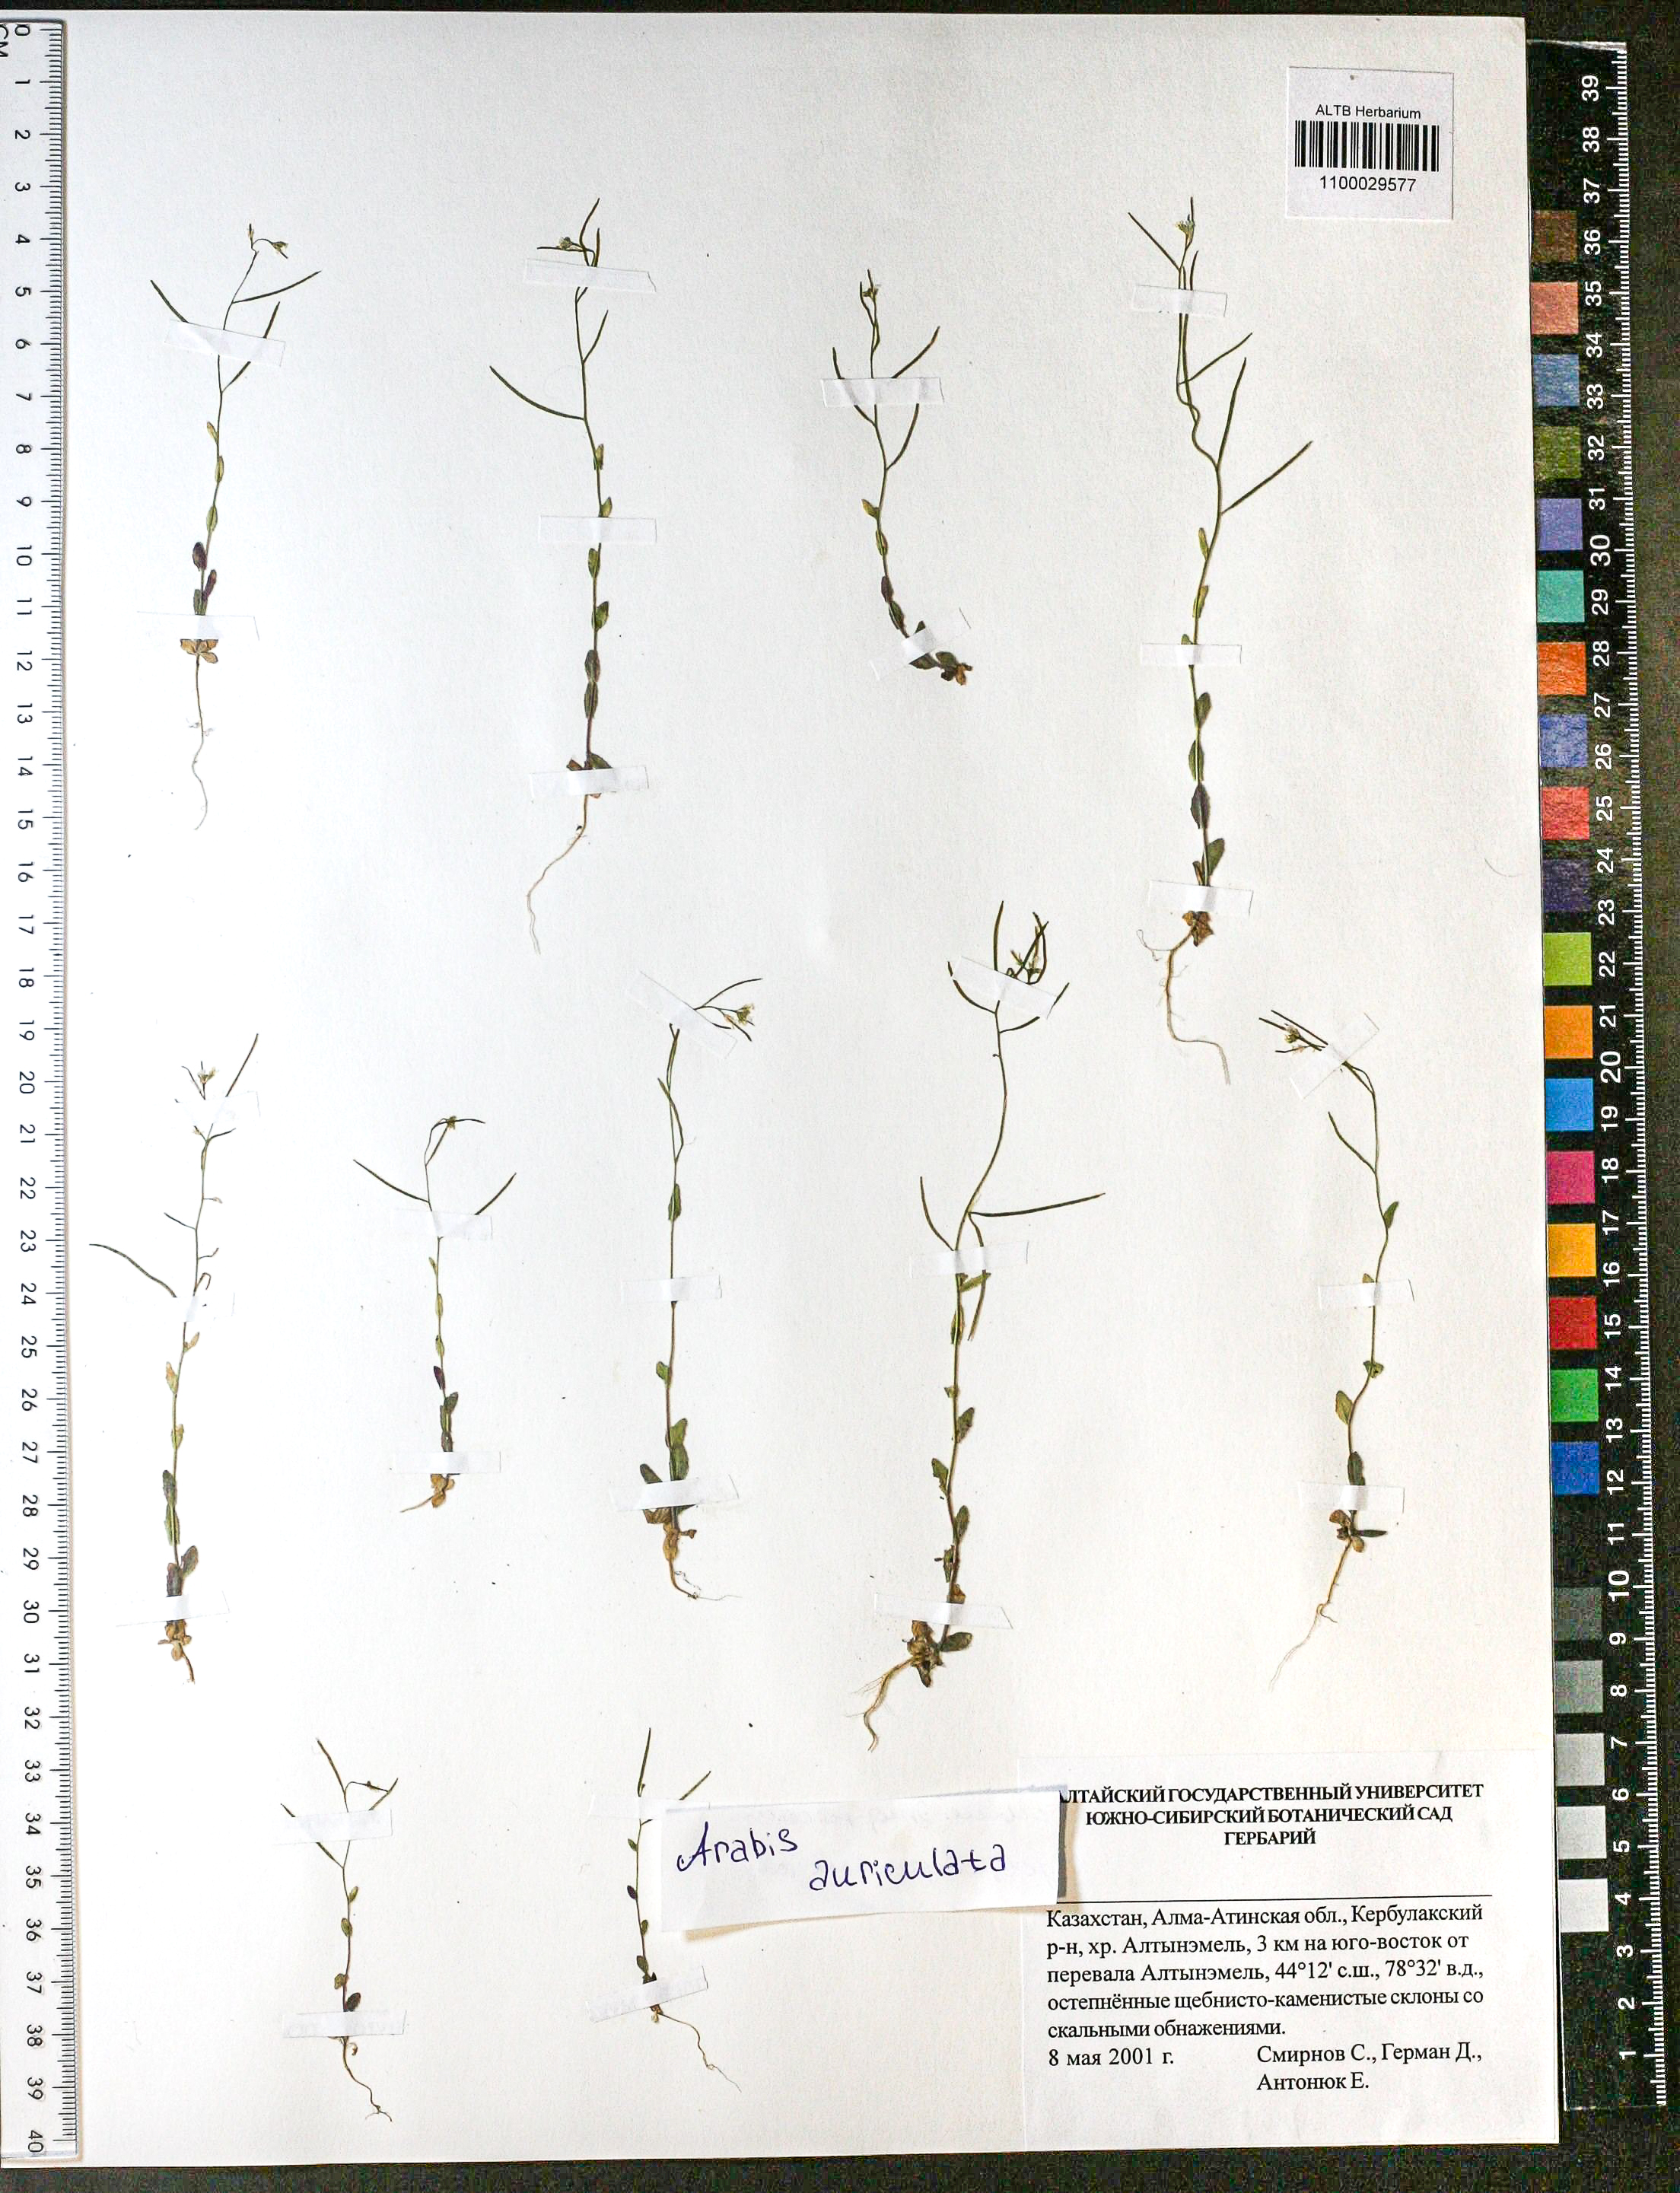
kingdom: Plantae
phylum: Tracheophyta
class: Magnoliopsida
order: Brassicales
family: Brassicaceae
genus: Arabis
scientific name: Arabis auriculata
